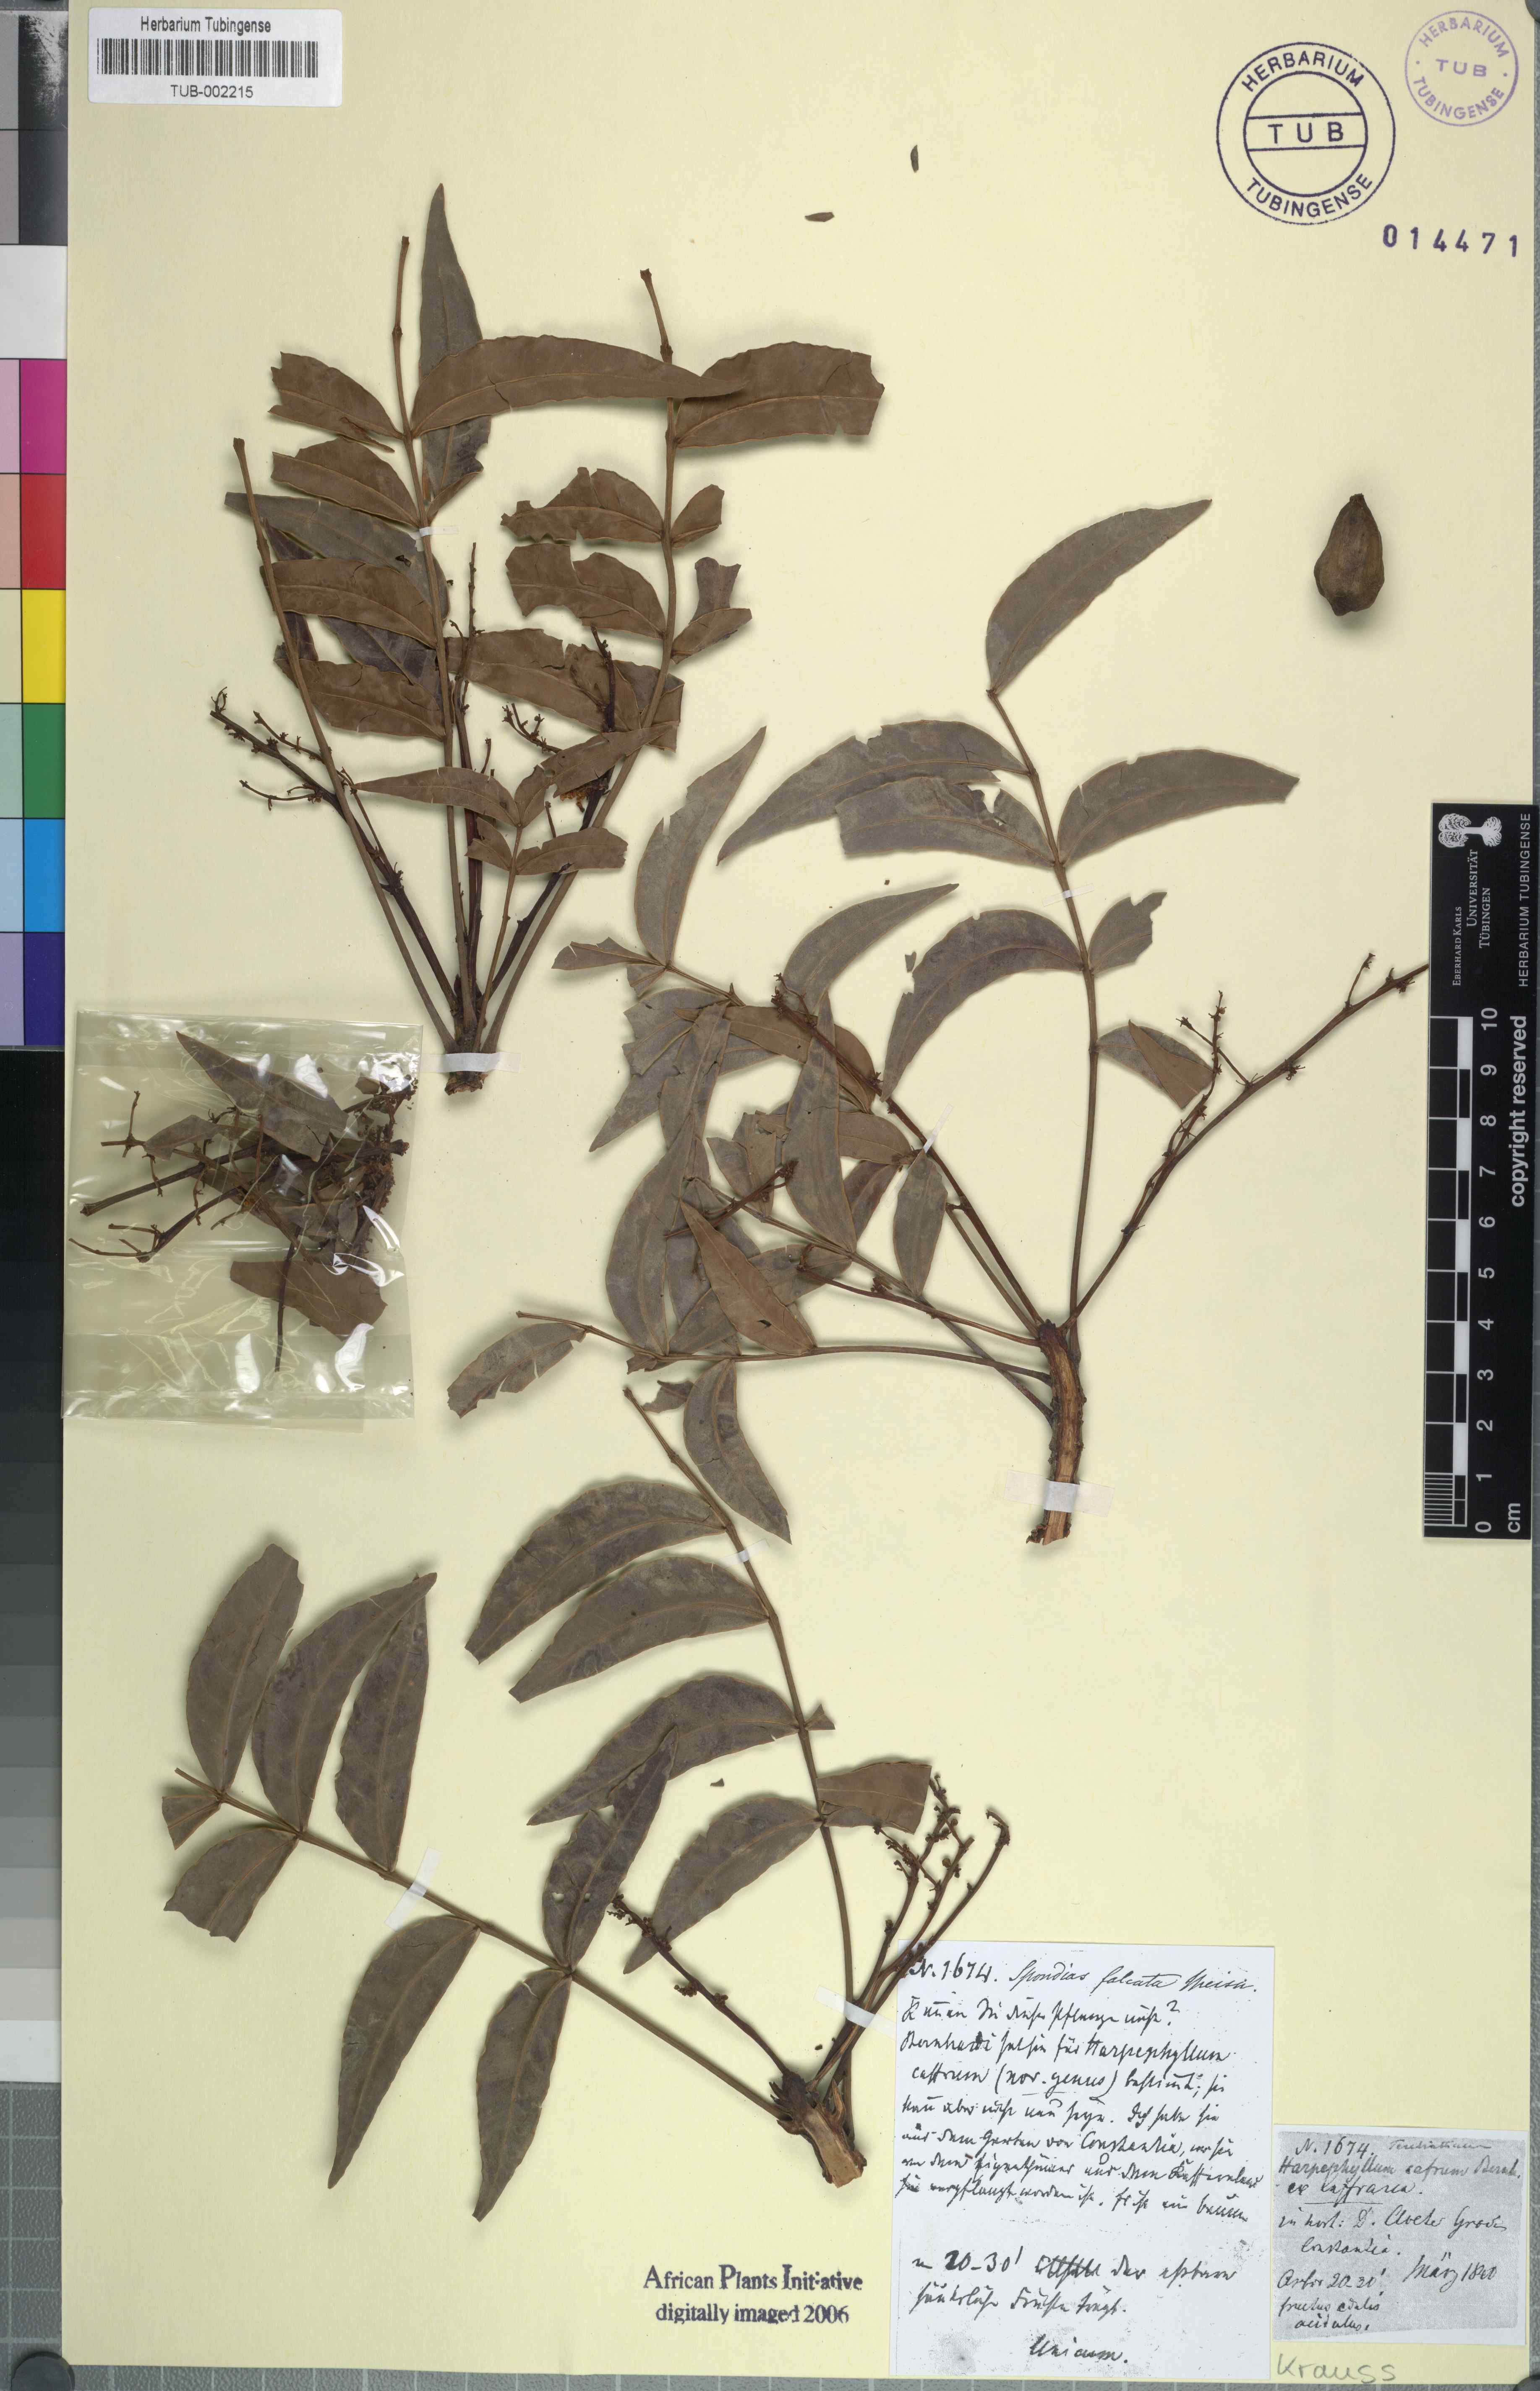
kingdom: Plantae
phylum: Tracheophyta
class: Magnoliopsida
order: Sapindales
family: Anacardiaceae
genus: Harpephyllum
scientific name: Harpephyllum caffrum
